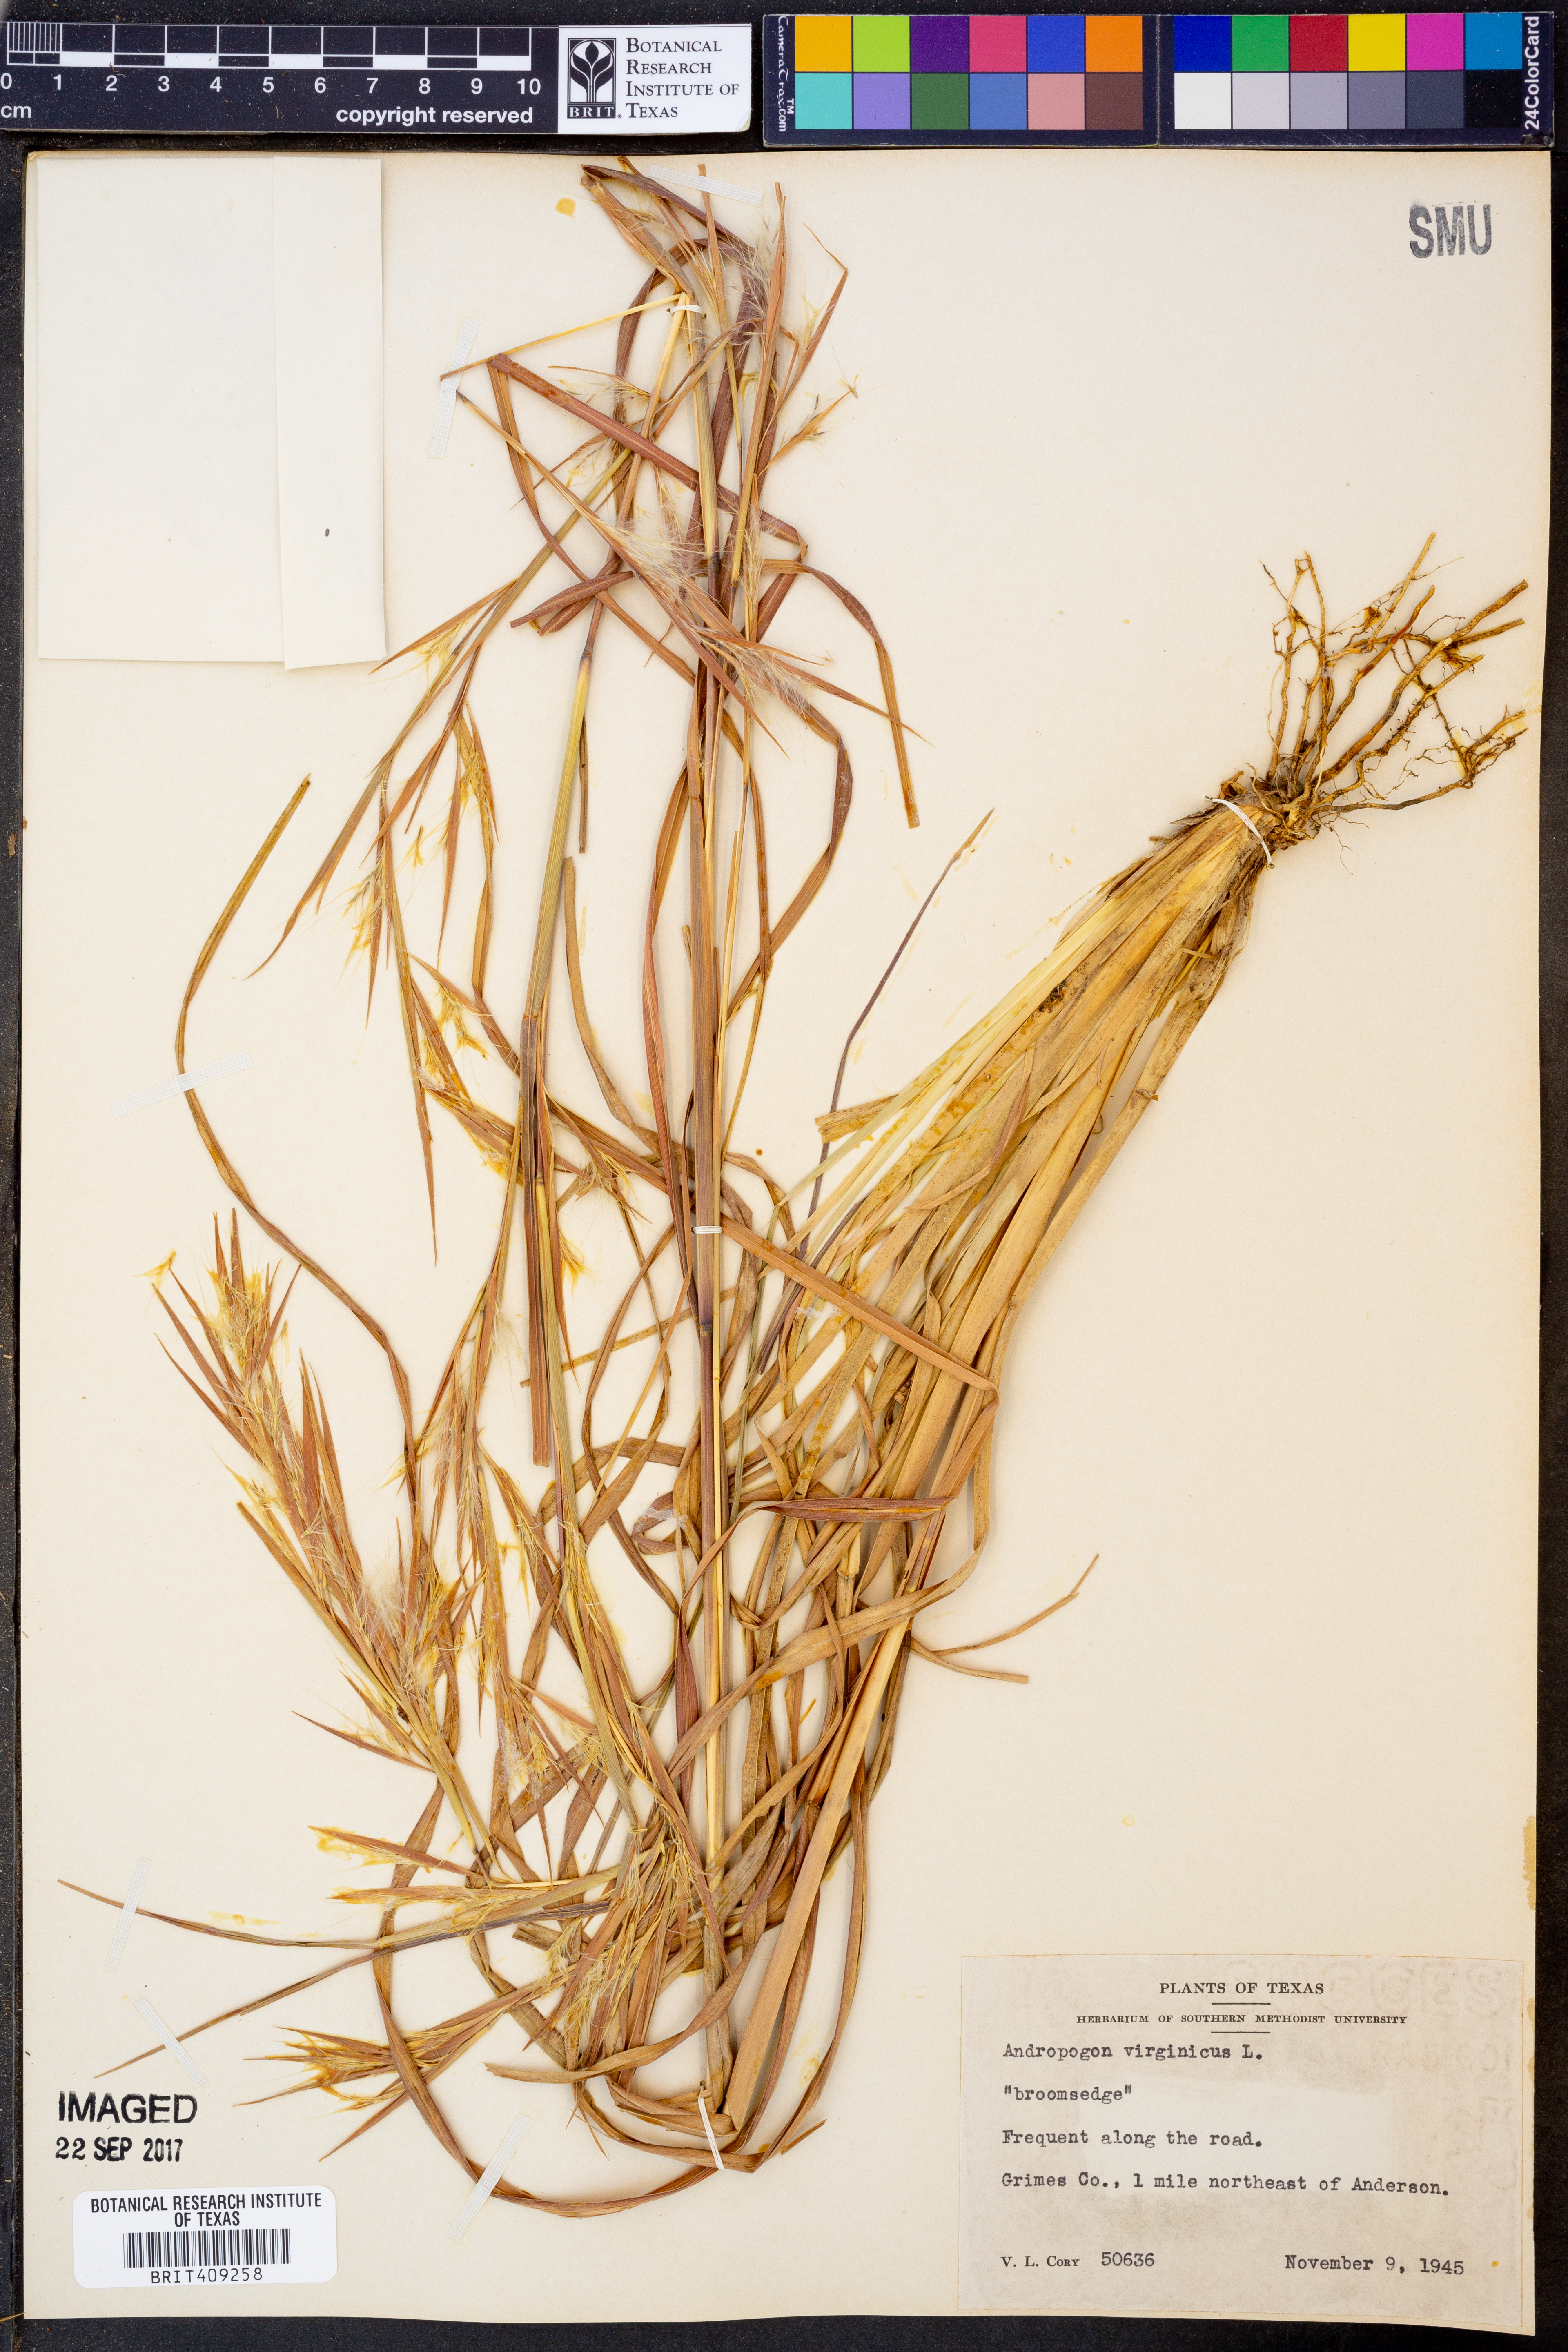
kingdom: Plantae
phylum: Tracheophyta
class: Liliopsida
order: Poales
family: Poaceae
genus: Andropogon
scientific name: Andropogon virginicus
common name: Broomsedge bluestem
